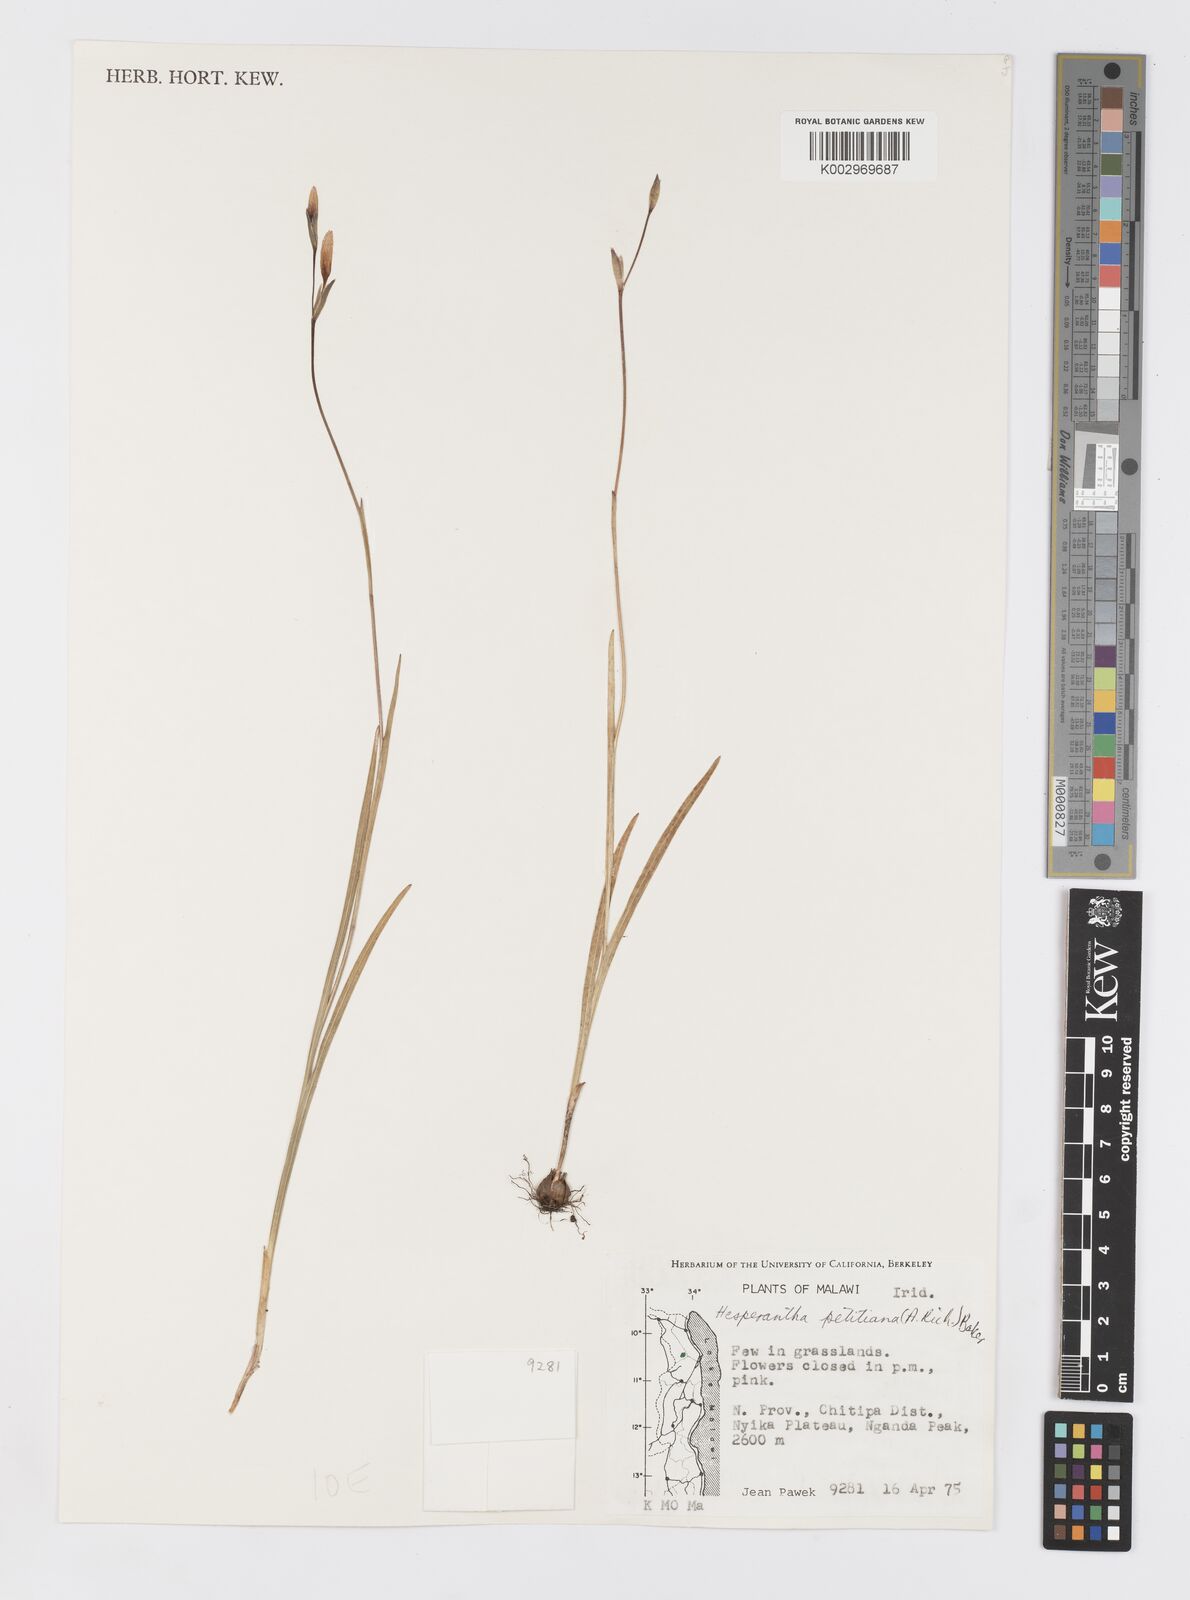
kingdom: Plantae
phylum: Tracheophyta
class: Liliopsida
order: Asparagales
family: Iridaceae
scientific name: Iridaceae
